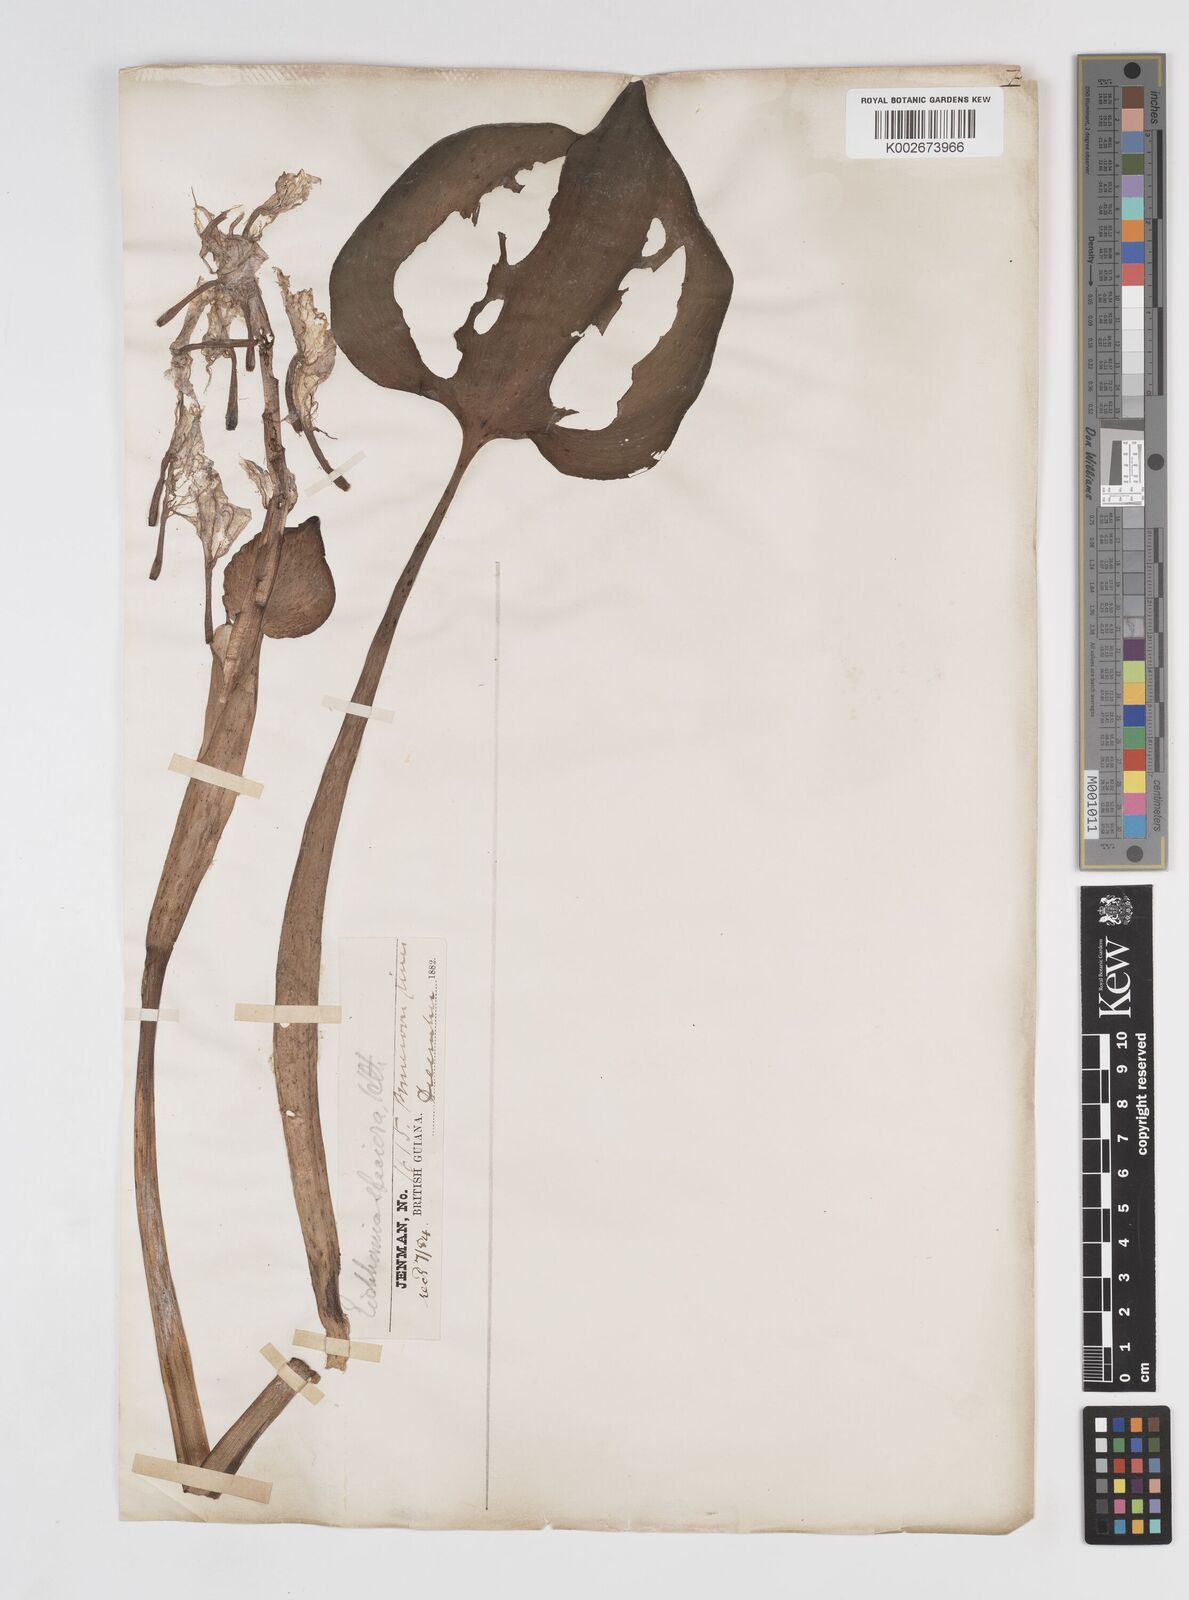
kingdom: Plantae
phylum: Tracheophyta
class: Liliopsida
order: Commelinales
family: Pontederiaceae
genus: Pontederia
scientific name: Pontederia crassipes
